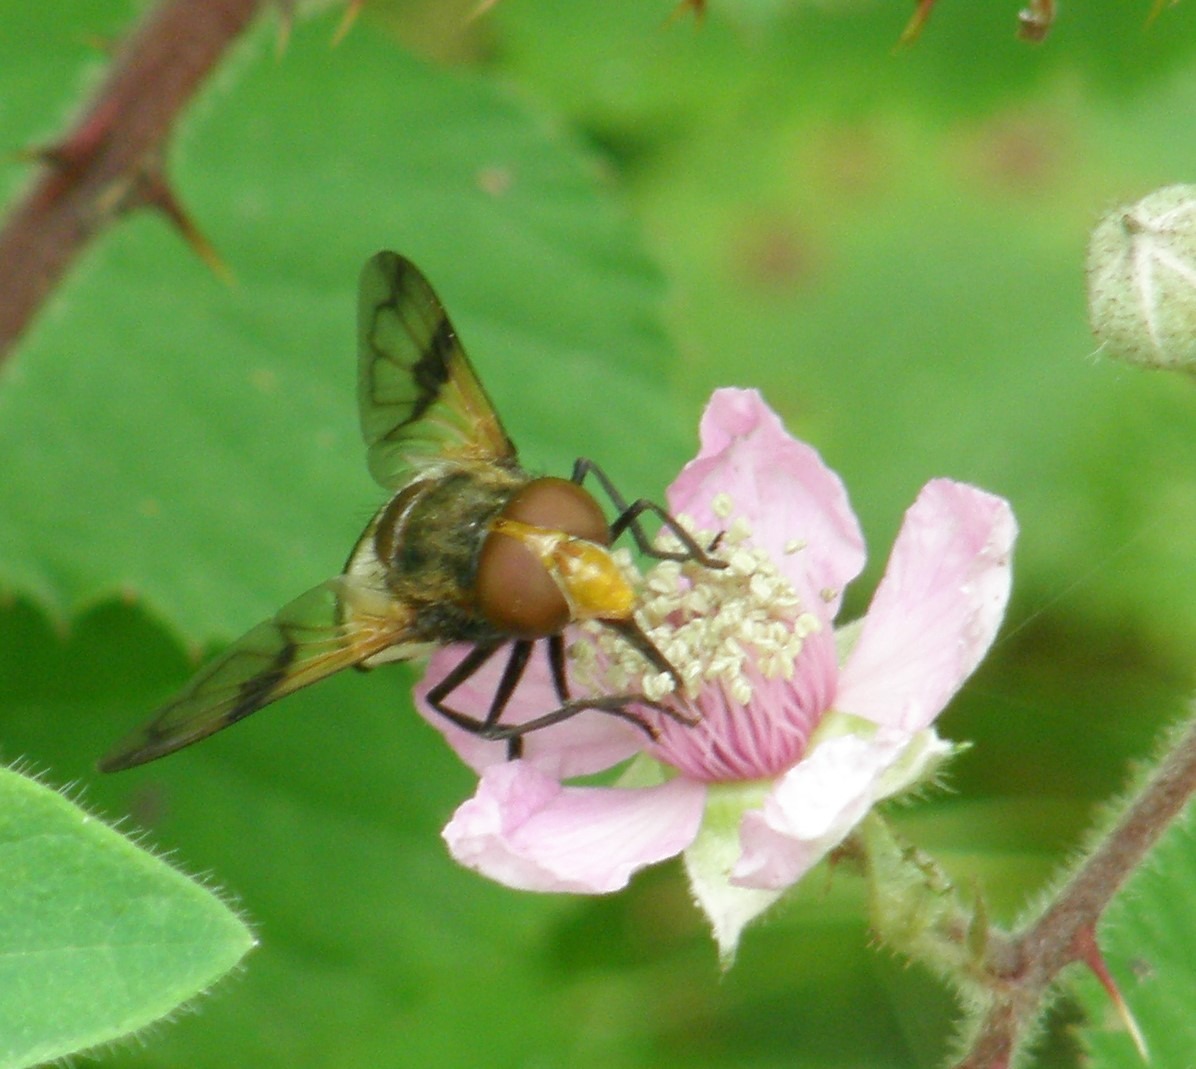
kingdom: Animalia
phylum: Arthropoda
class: Insecta
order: Diptera
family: Syrphidae
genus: Volucella
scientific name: Volucella pellucens
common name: Hvidbåndet humlesvirreflue
